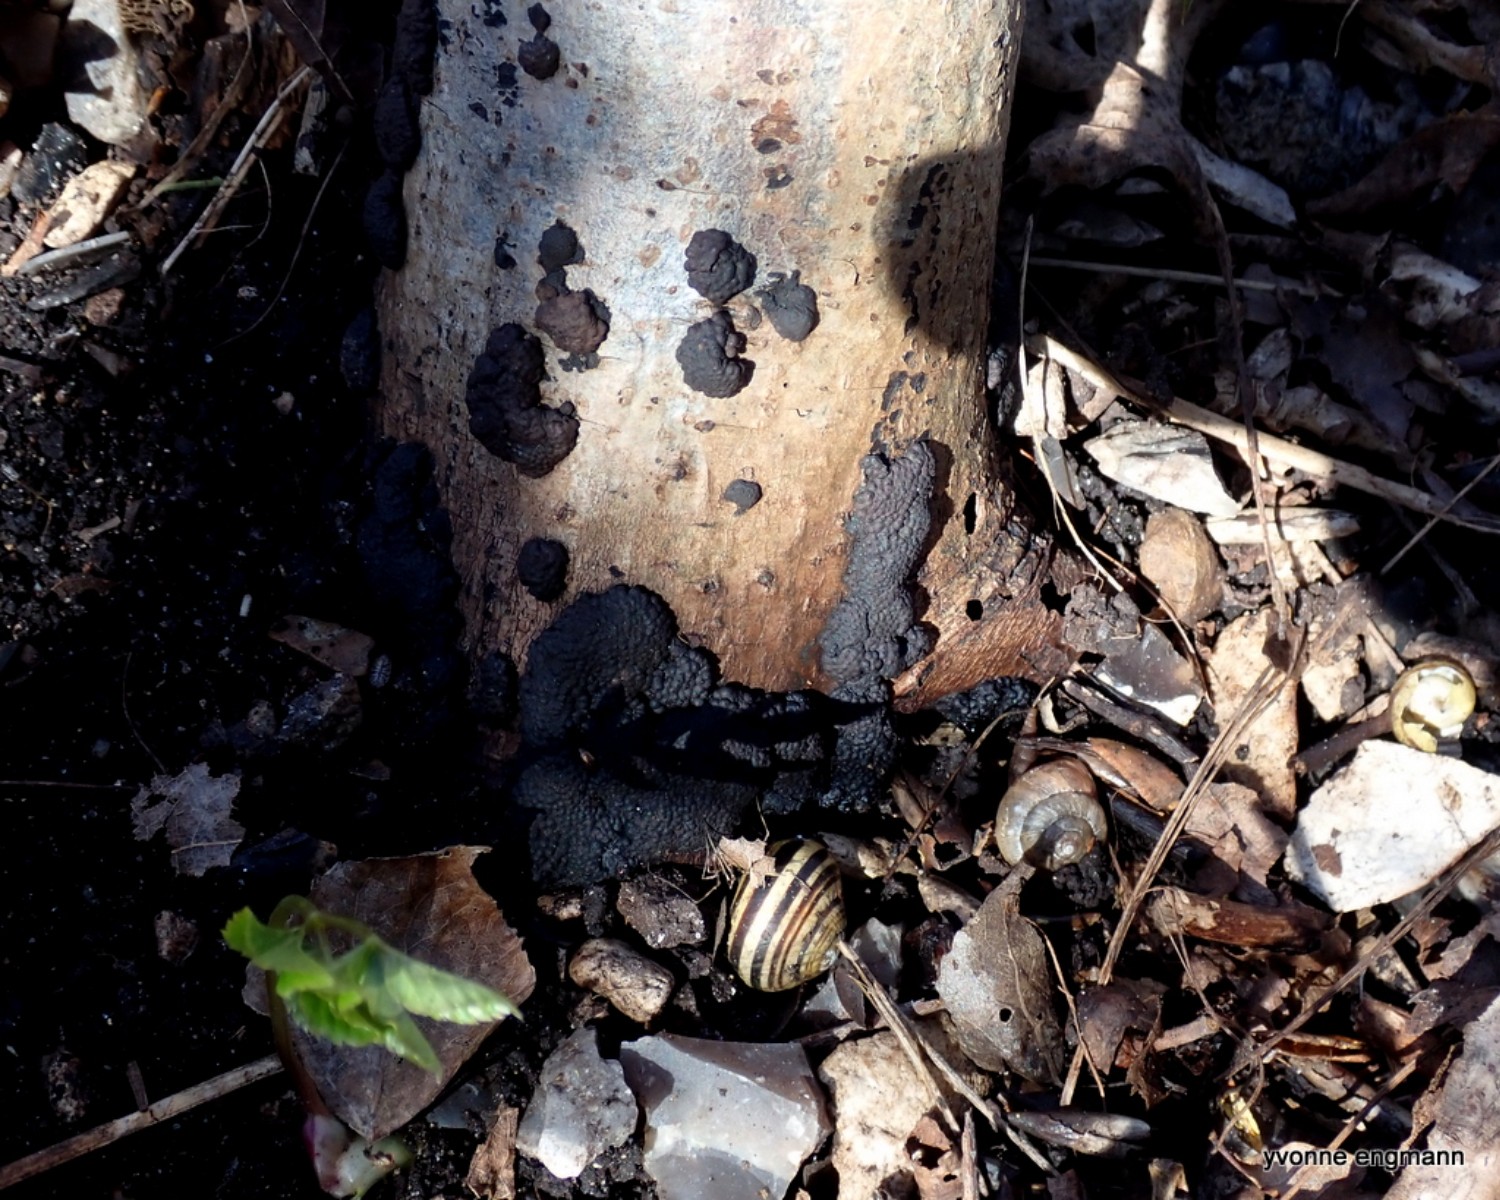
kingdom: Fungi
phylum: Ascomycota
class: Sordariomycetes
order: Xylariales
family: Hypoxylaceae
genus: Jackrogersella
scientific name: Jackrogersella multiformis
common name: foranderlig kulbær
